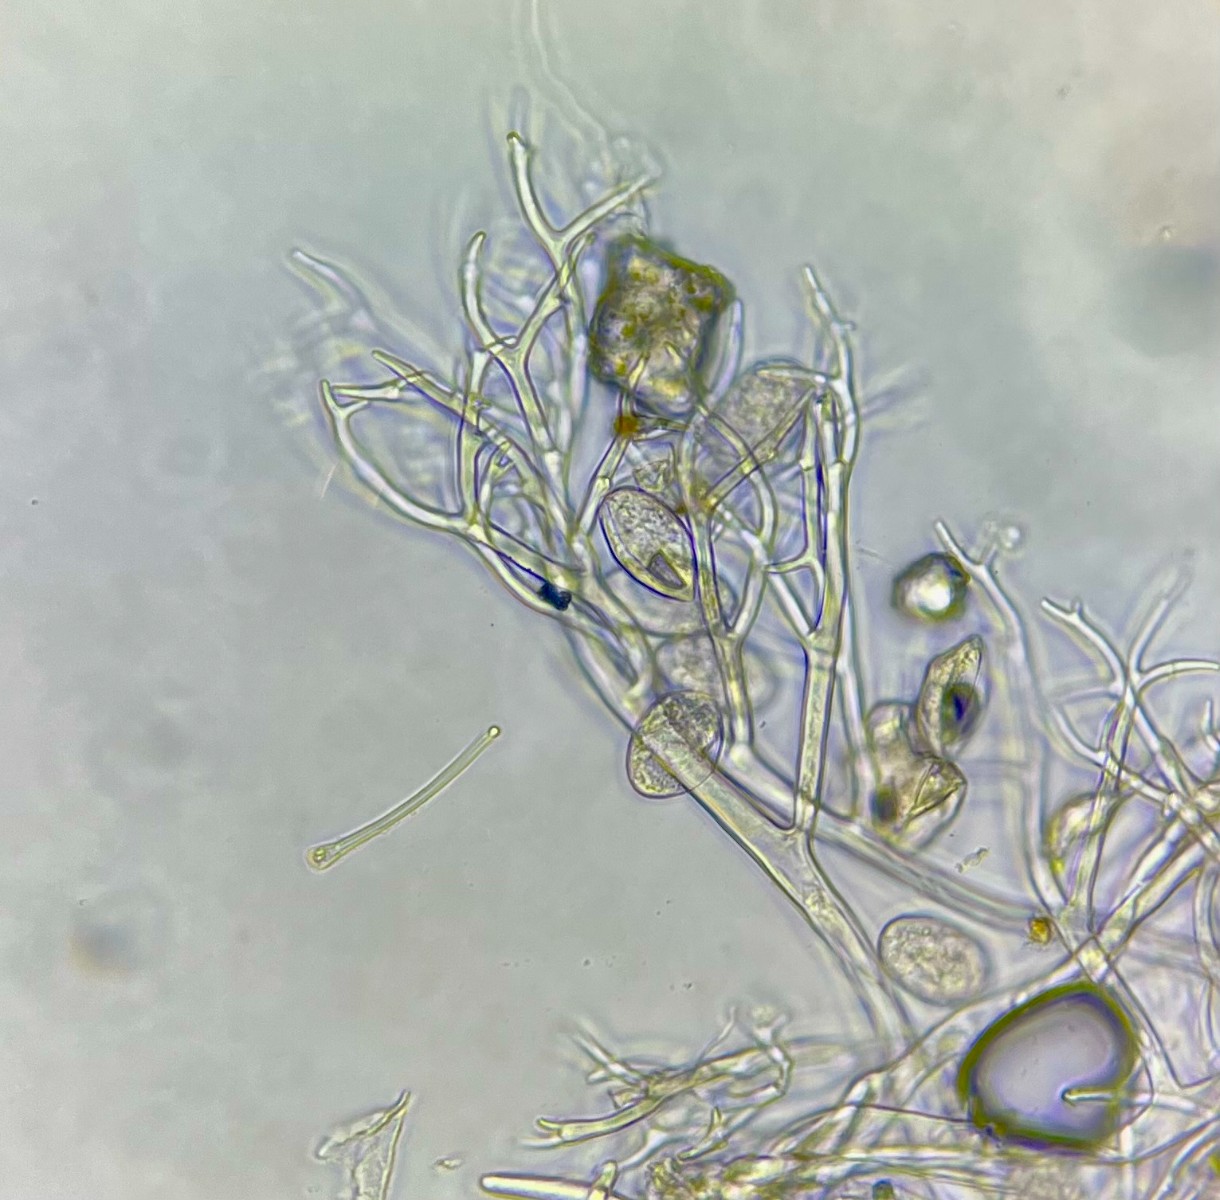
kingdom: Chromista
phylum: Oomycota
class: Peronosporea
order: Peronosporales
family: Peronosporaceae
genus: Peronospora
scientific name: Peronospora alsinearum
